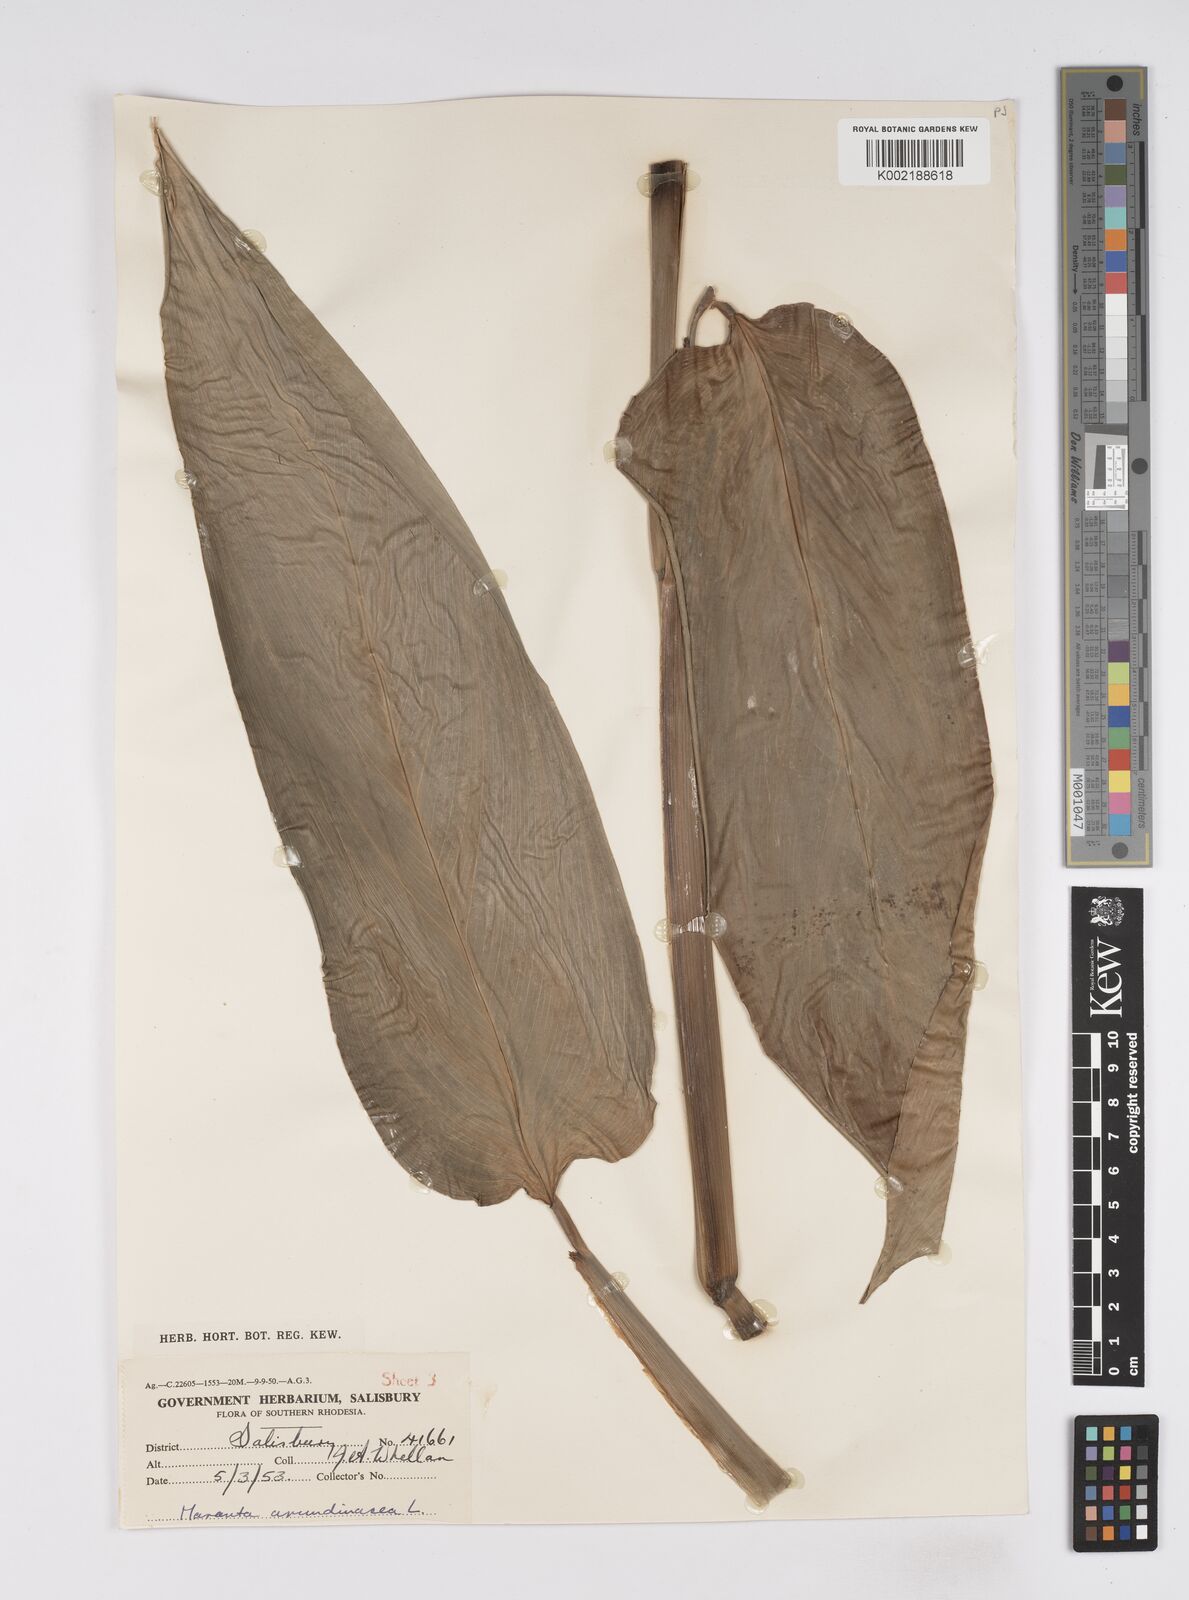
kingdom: Plantae
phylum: Tracheophyta
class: Liliopsida
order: Zingiberales
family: Marantaceae
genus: Maranta
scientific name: Maranta arundinacea
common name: Arrowroot
